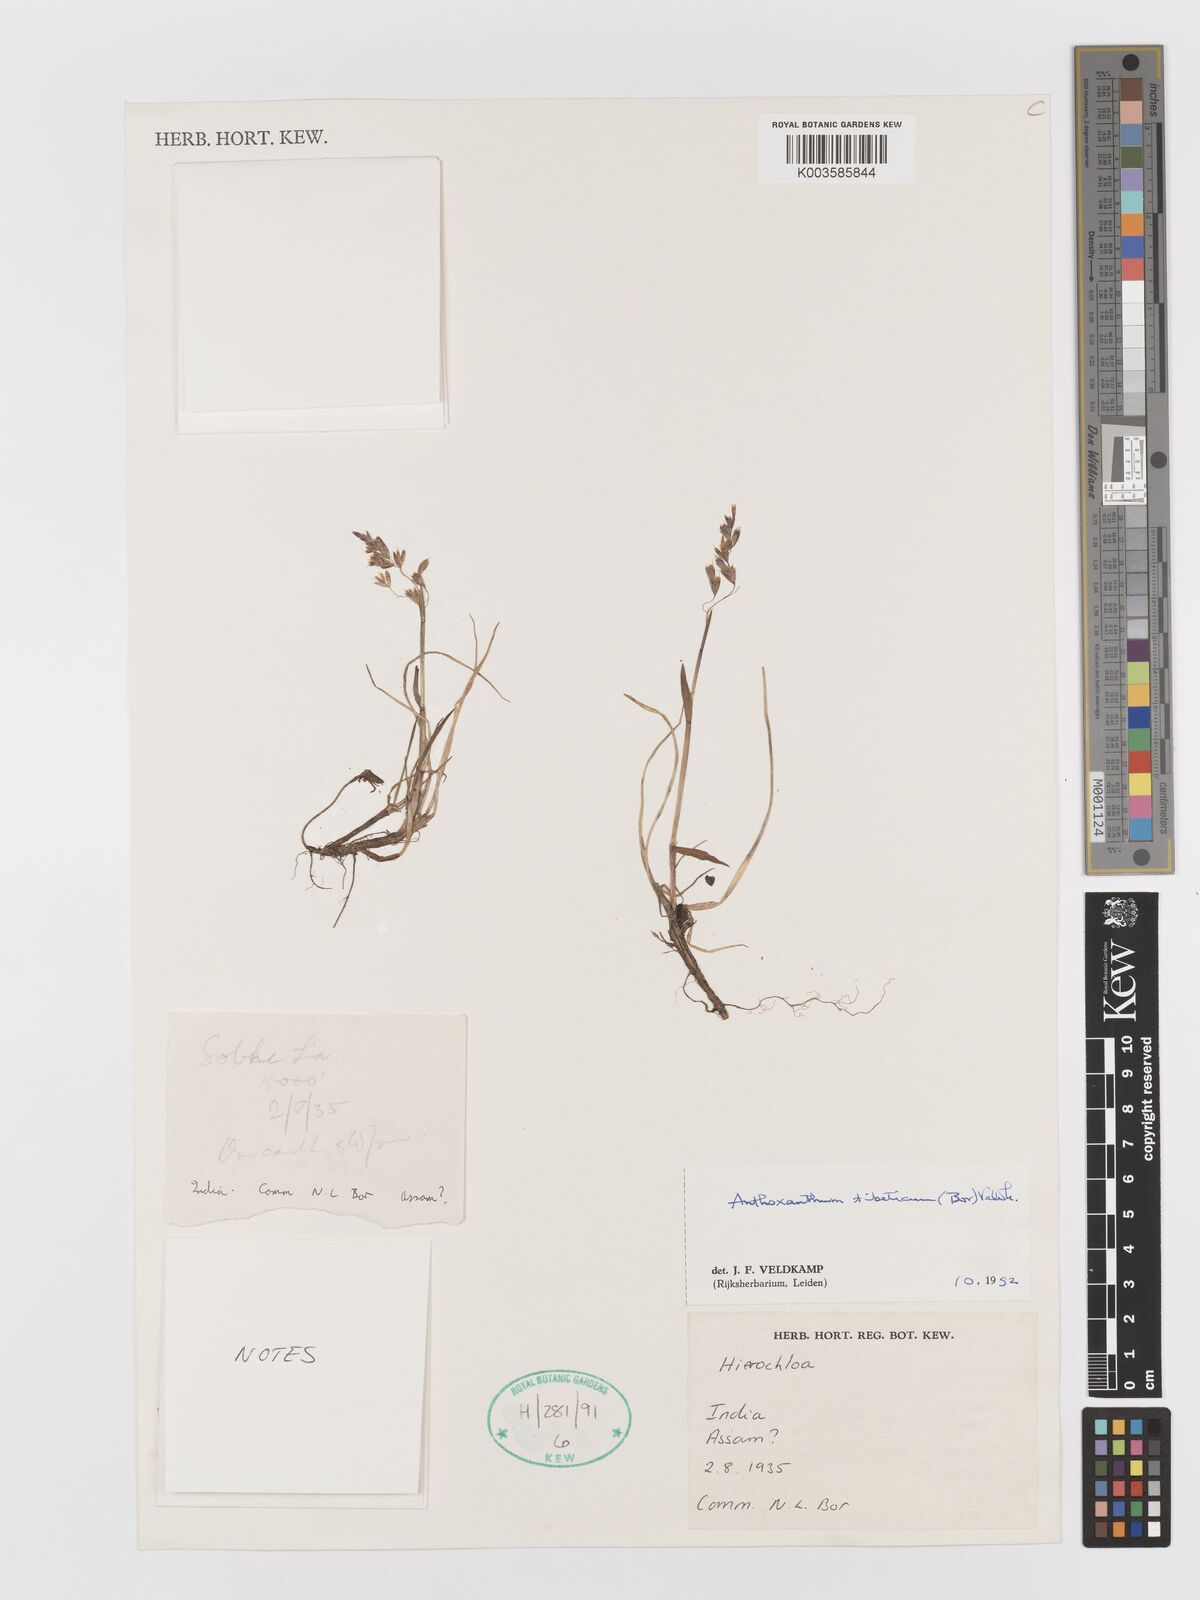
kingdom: Plantae
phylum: Tracheophyta
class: Liliopsida
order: Poales
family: Poaceae
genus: Hierochloe
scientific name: Hierochloe
